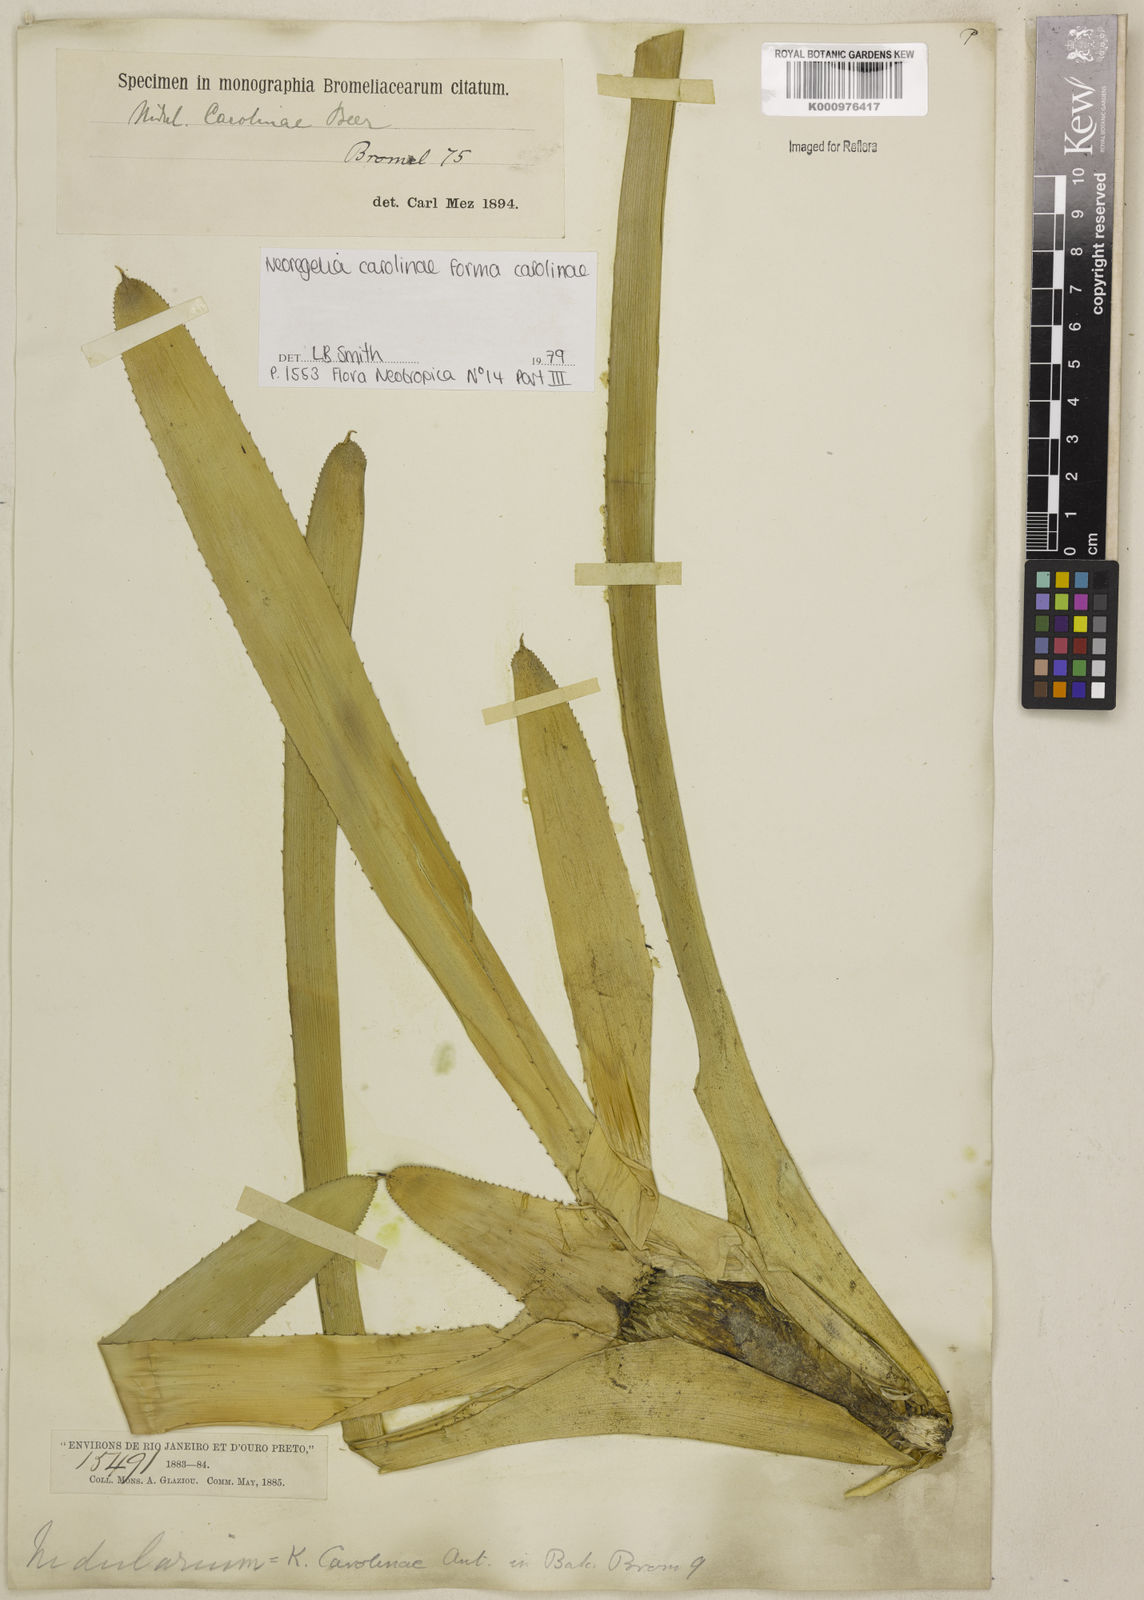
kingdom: Plantae
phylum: Tracheophyta
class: Liliopsida
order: Poales
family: Bromeliaceae
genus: Neoregelia
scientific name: Neoregelia carolinae
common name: Blushing bromeliad
